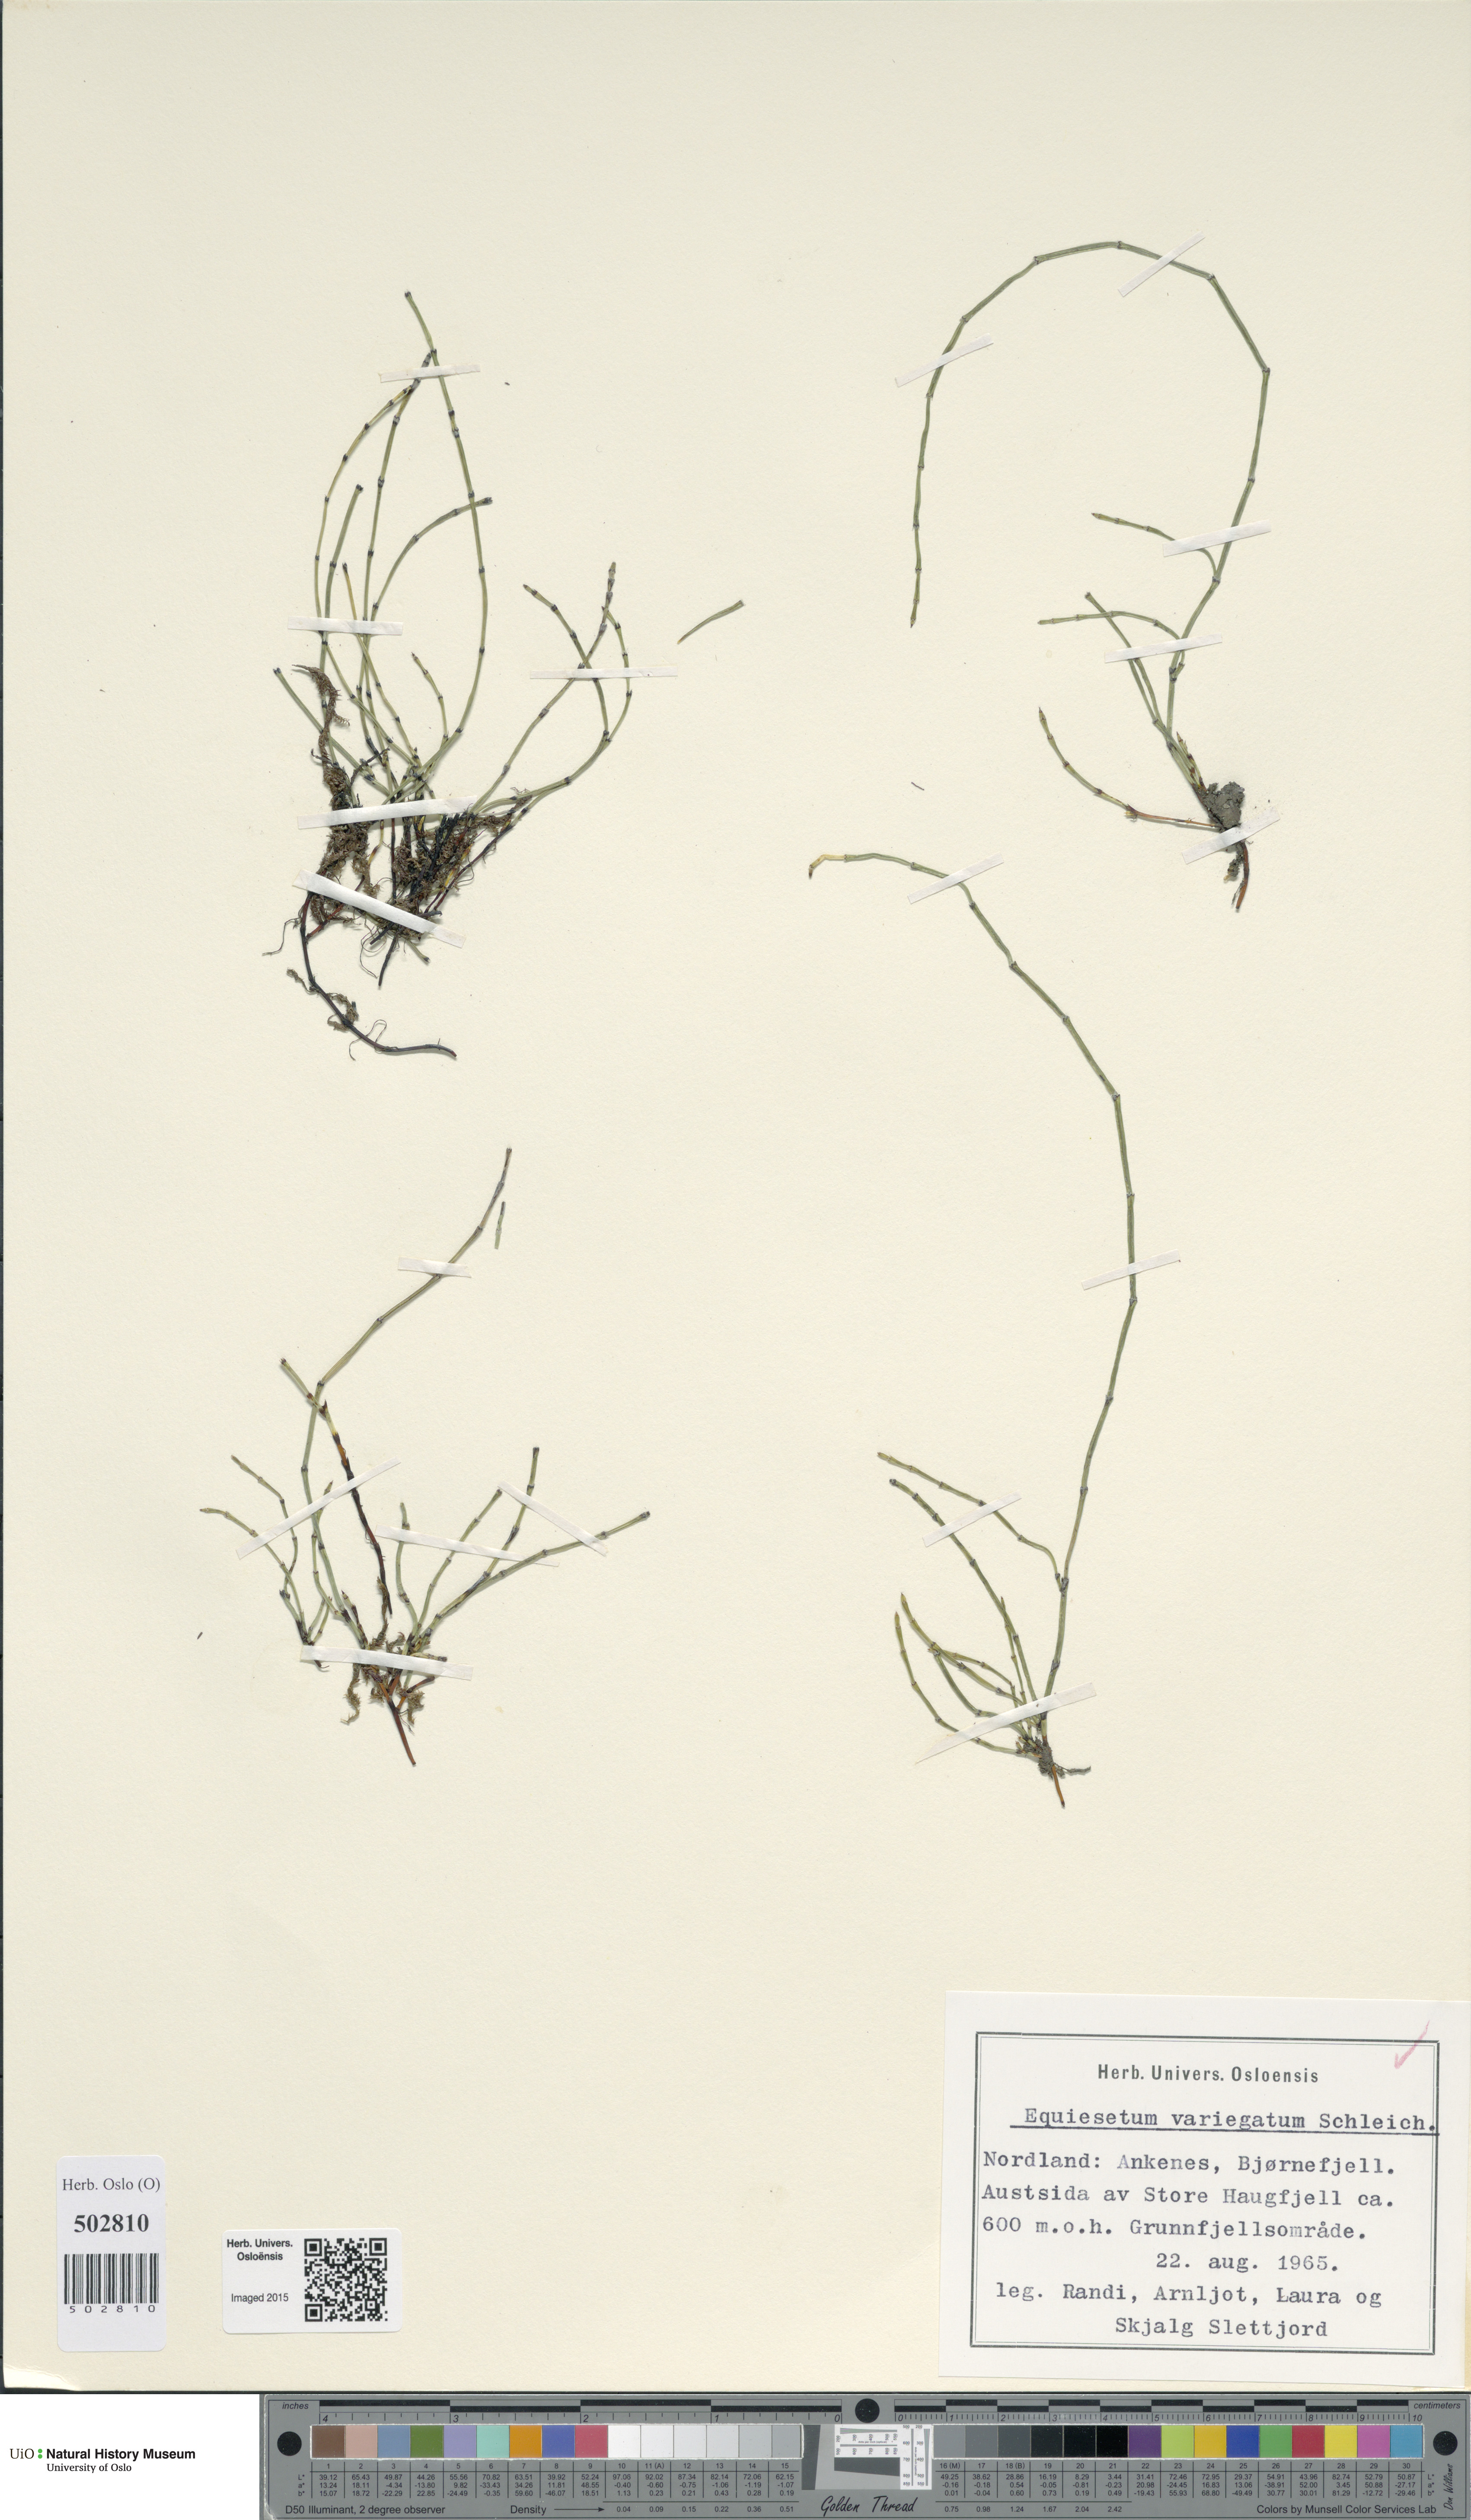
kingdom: Plantae
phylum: Tracheophyta
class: Polypodiopsida
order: Equisetales
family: Equisetaceae
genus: Equisetum
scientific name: Equisetum variegatum
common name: Variegated horsetail
